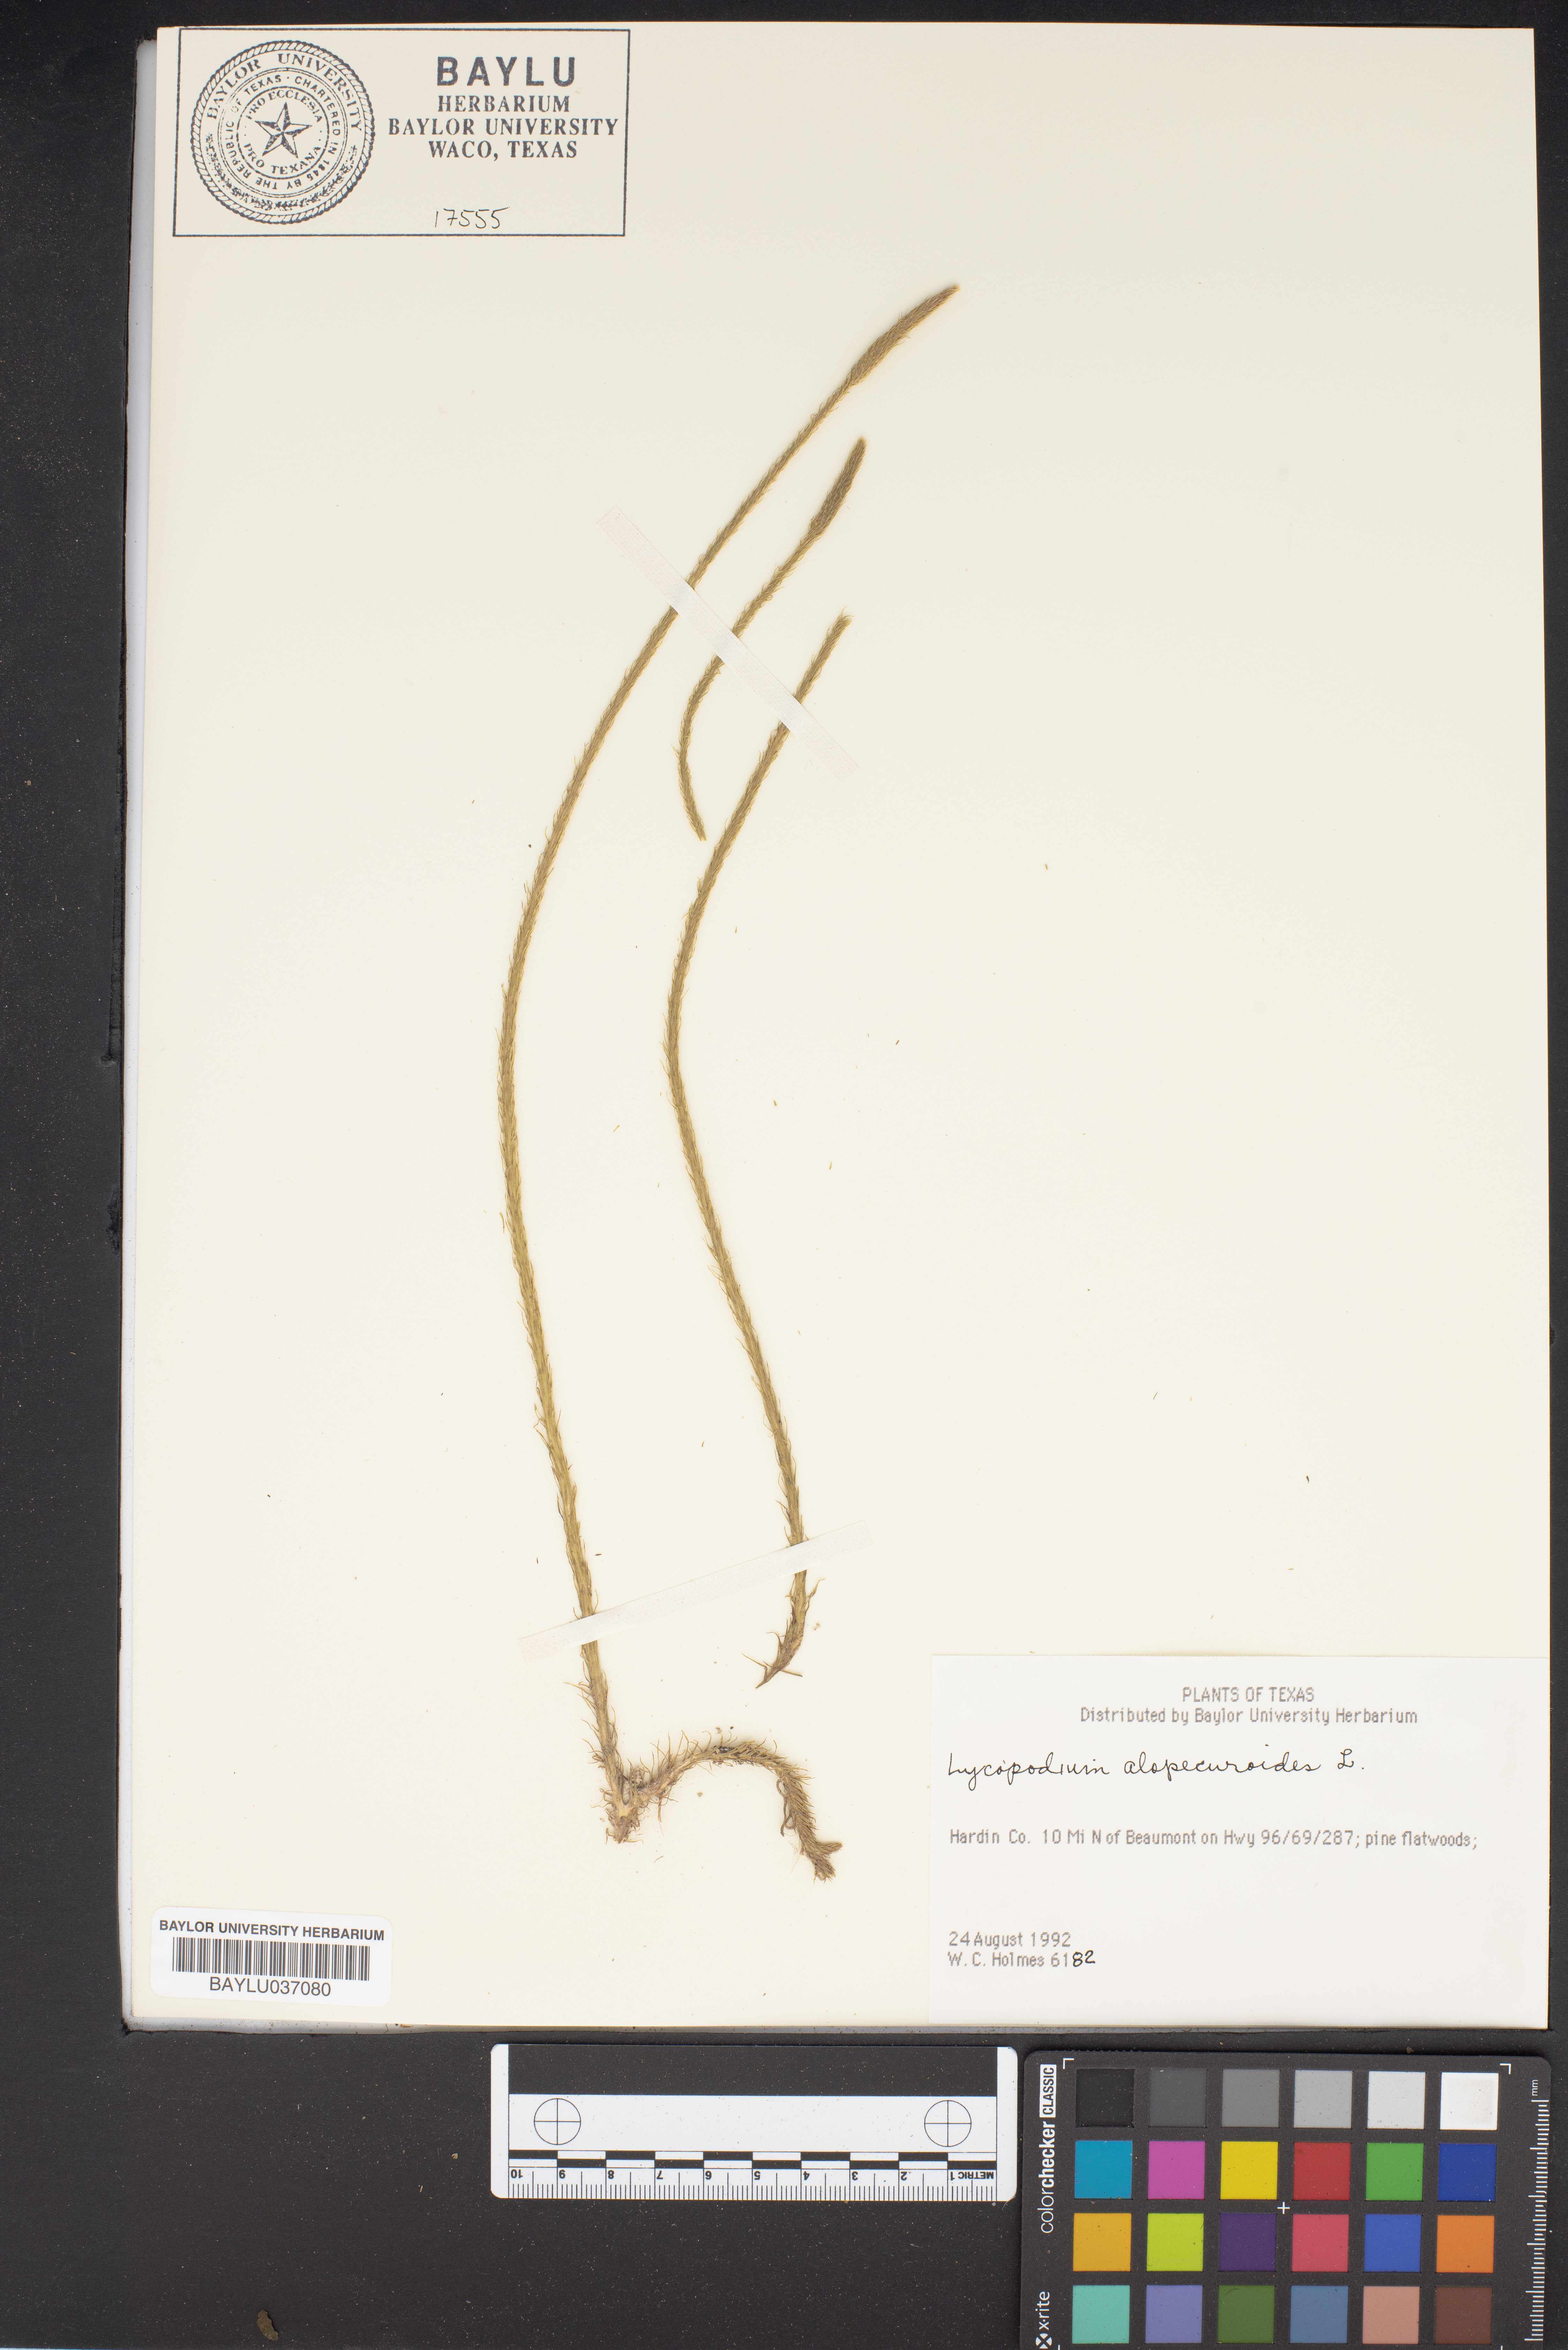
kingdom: Plantae
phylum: Tracheophyta
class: Lycopodiopsida
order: Lycopodiales
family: Lycopodiaceae
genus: Lycopodiella
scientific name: Lycopodiella alopecuroides
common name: Foxtail clubmoss
